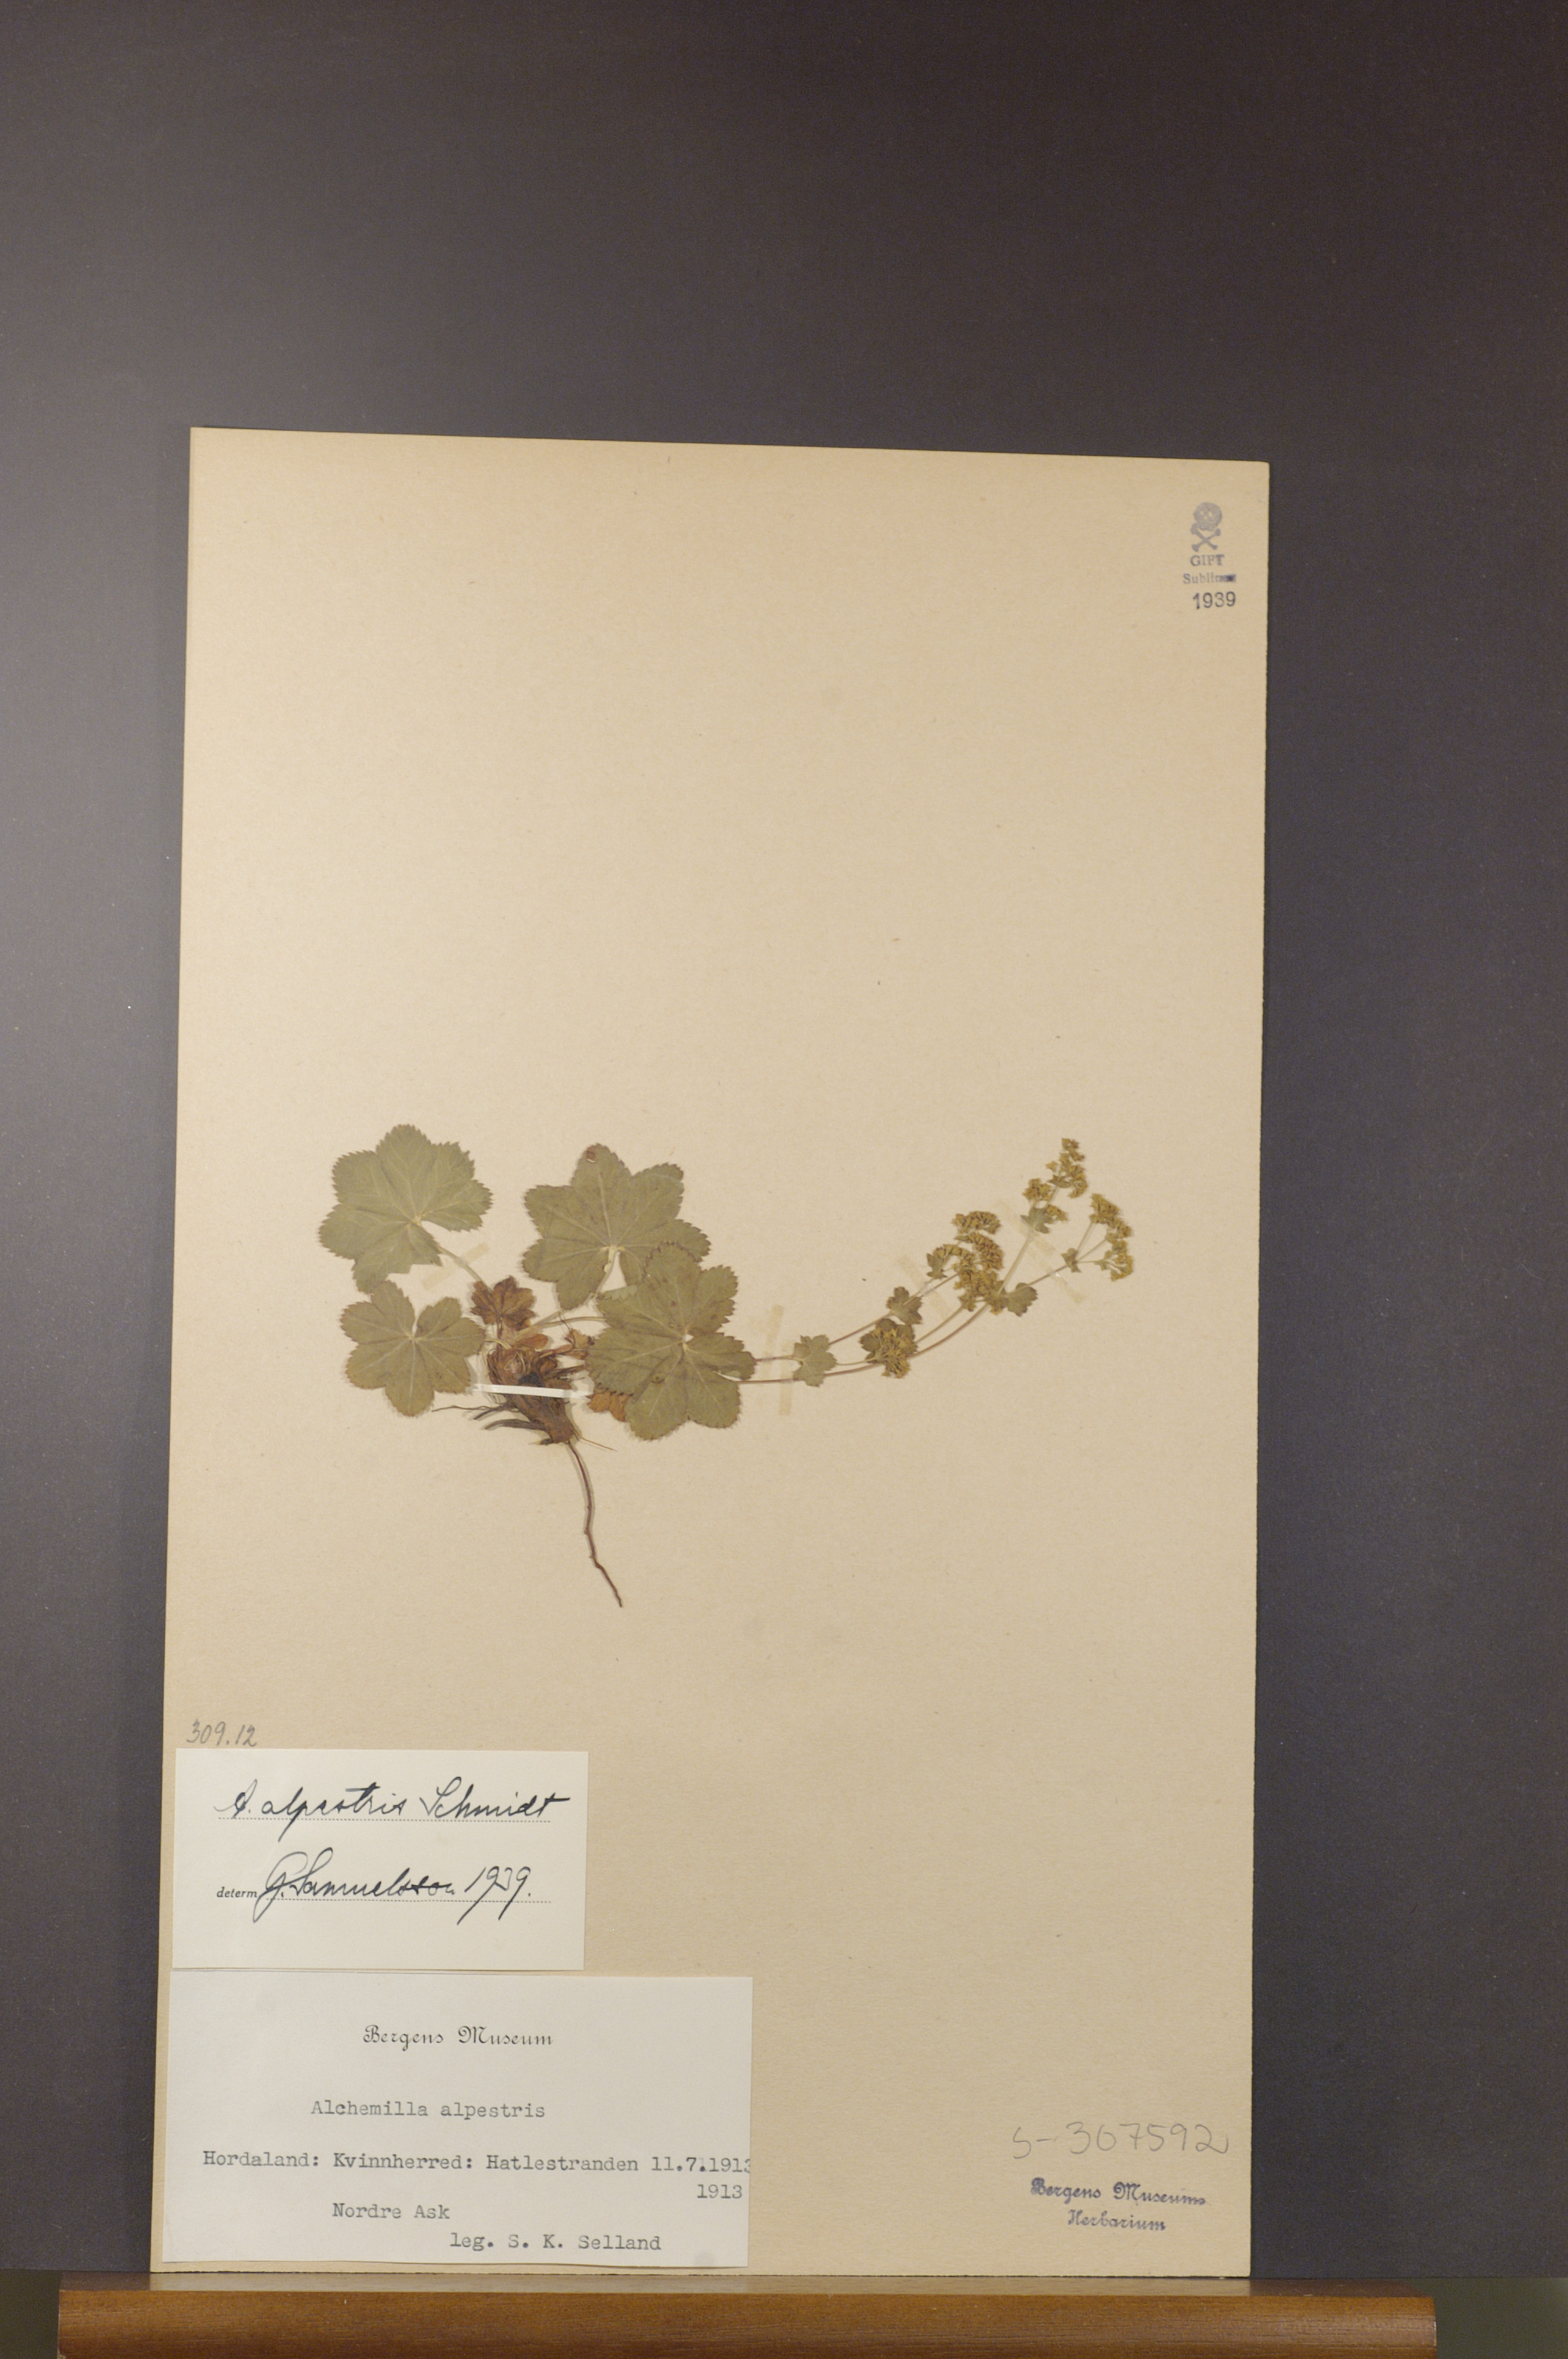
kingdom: Plantae
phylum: Tracheophyta
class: Magnoliopsida
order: Rosales
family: Rosaceae
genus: Alchemilla
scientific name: Alchemilla glabra
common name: Smooth lady's-mantle
